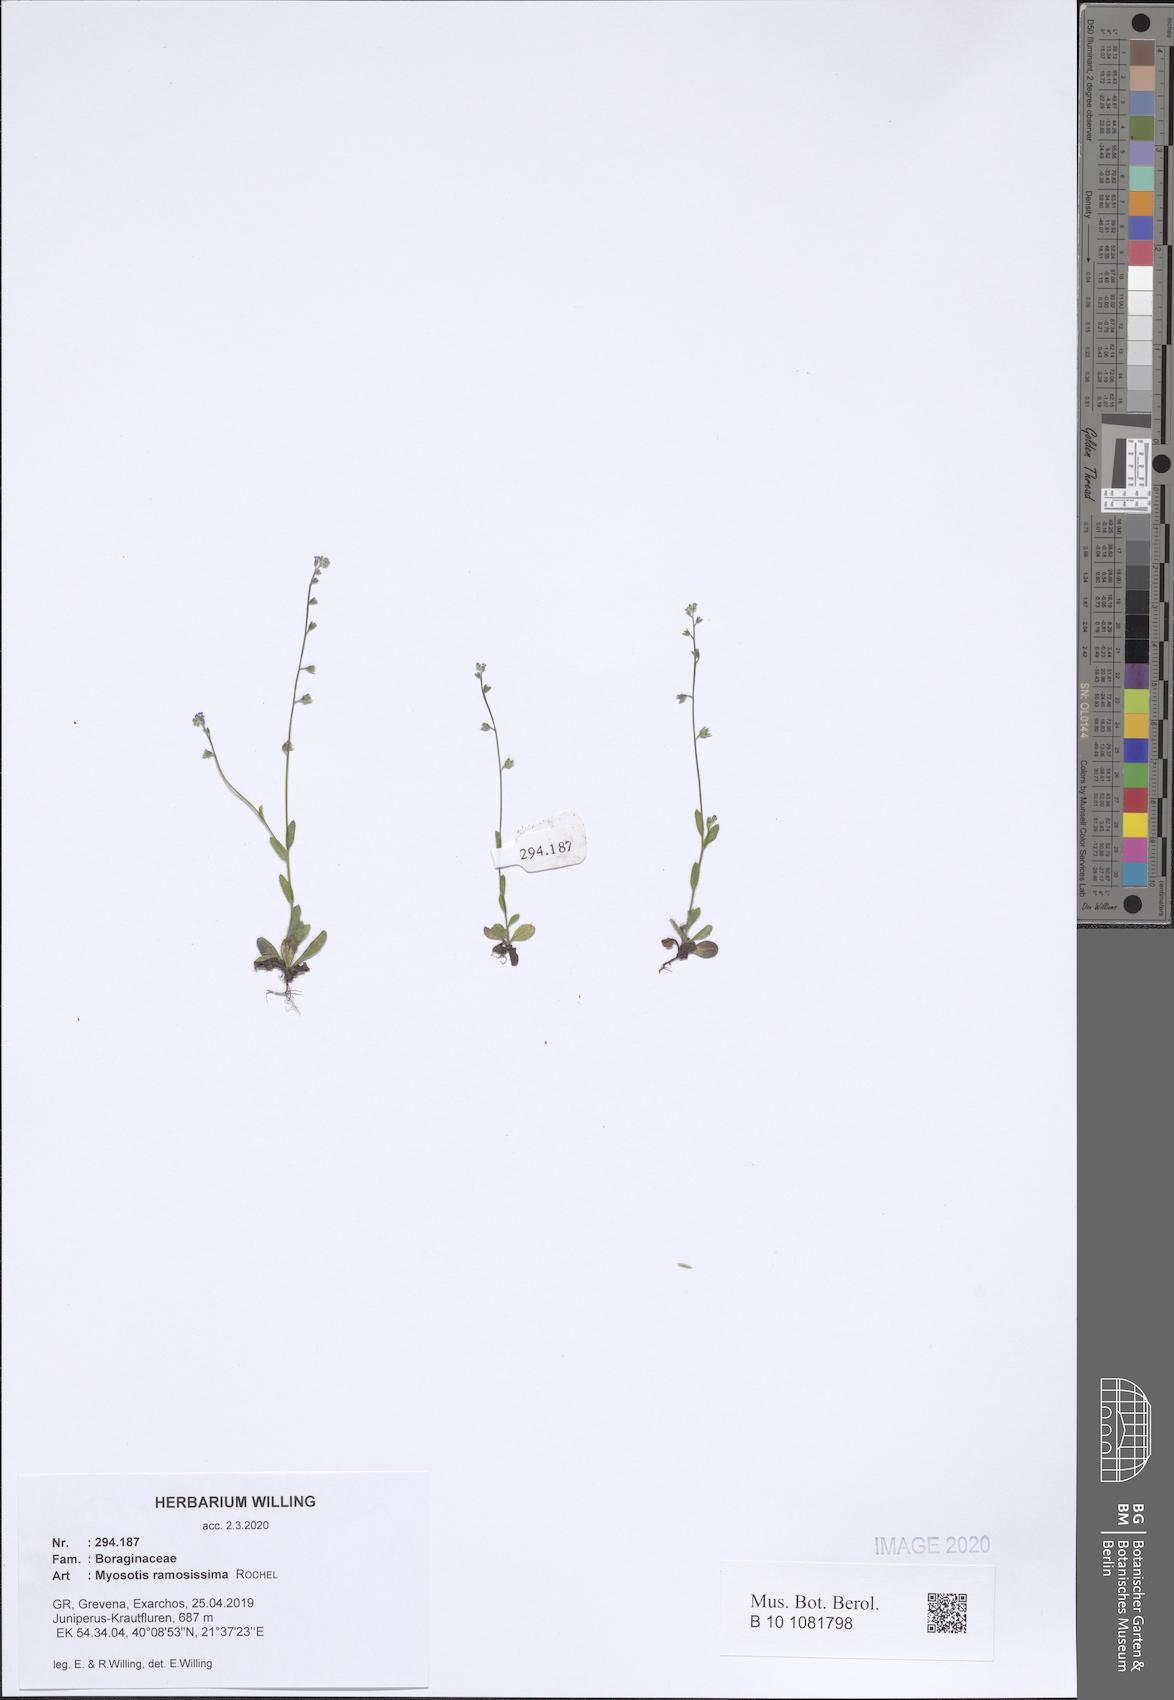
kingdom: Plantae
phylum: Tracheophyta
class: Magnoliopsida
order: Boraginales
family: Boraginaceae
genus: Myosotis
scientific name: Myosotis ramosissima
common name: Early forget-me-not
